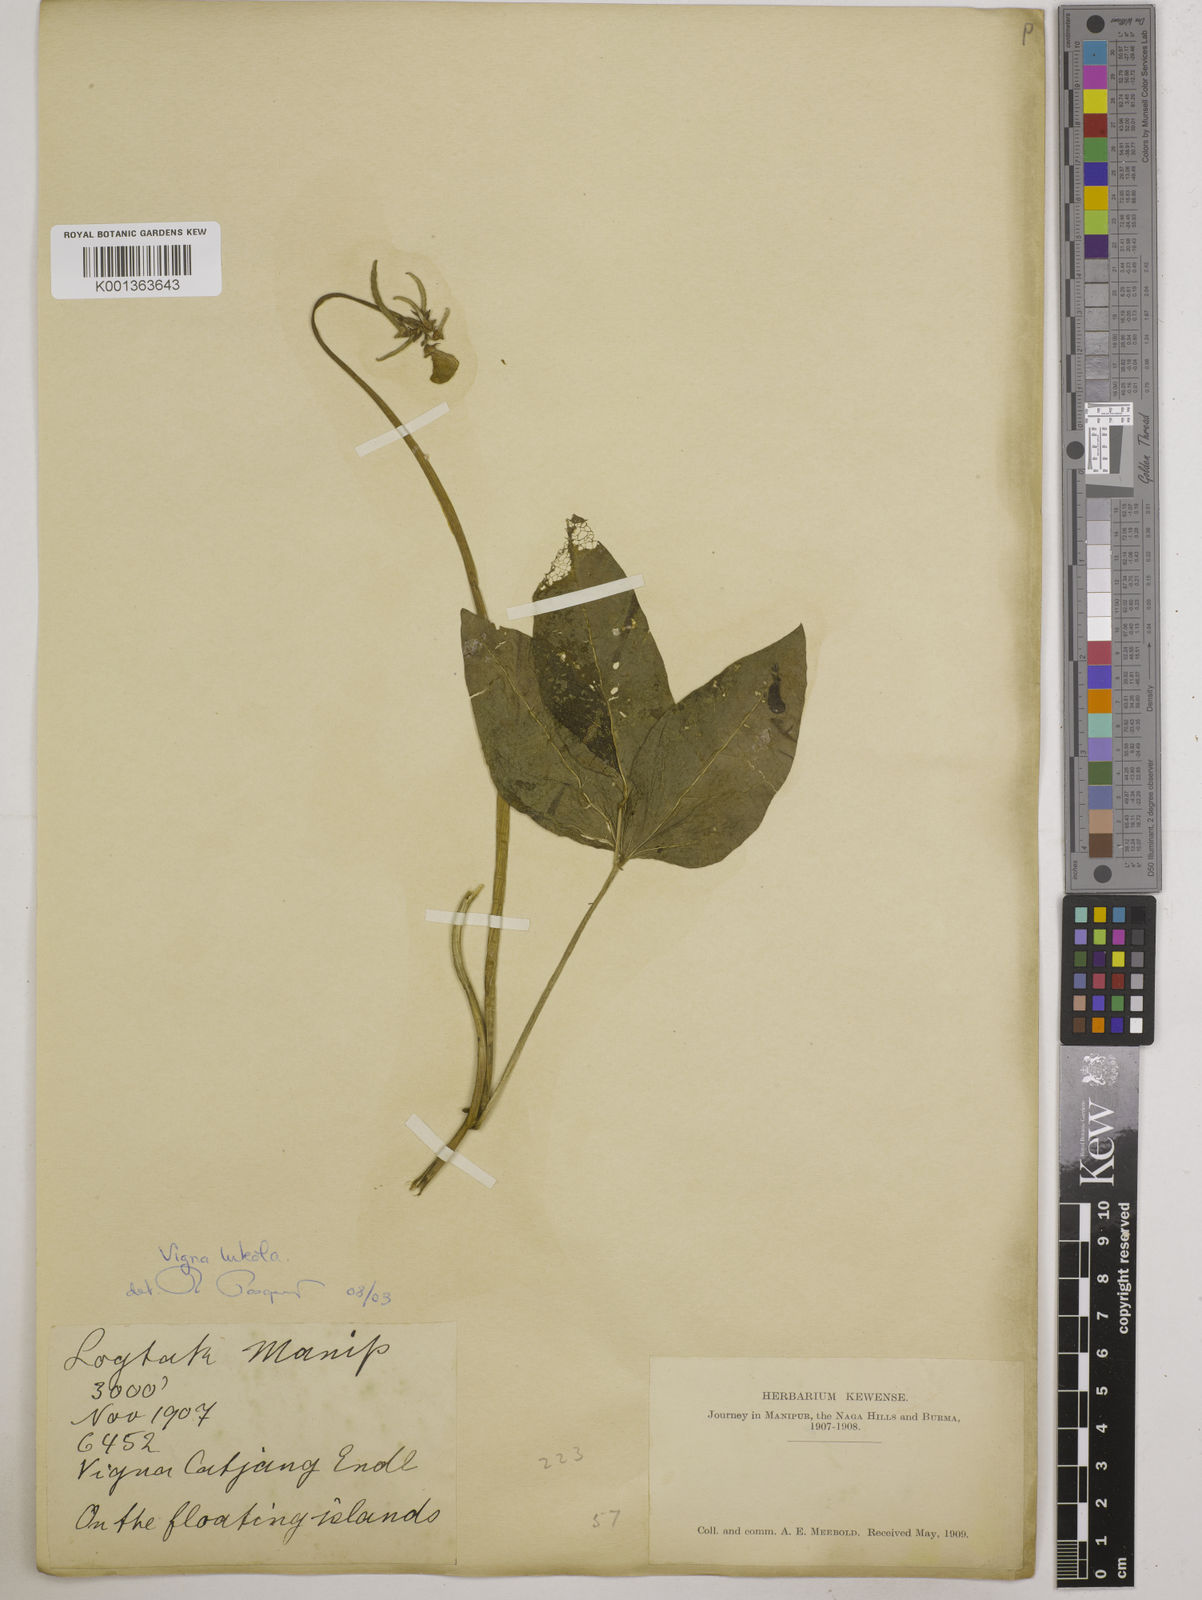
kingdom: Plantae
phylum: Tracheophyta
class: Magnoliopsida
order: Fabales
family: Fabaceae
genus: Vigna
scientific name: Vigna unguiculata
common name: Cowpea
